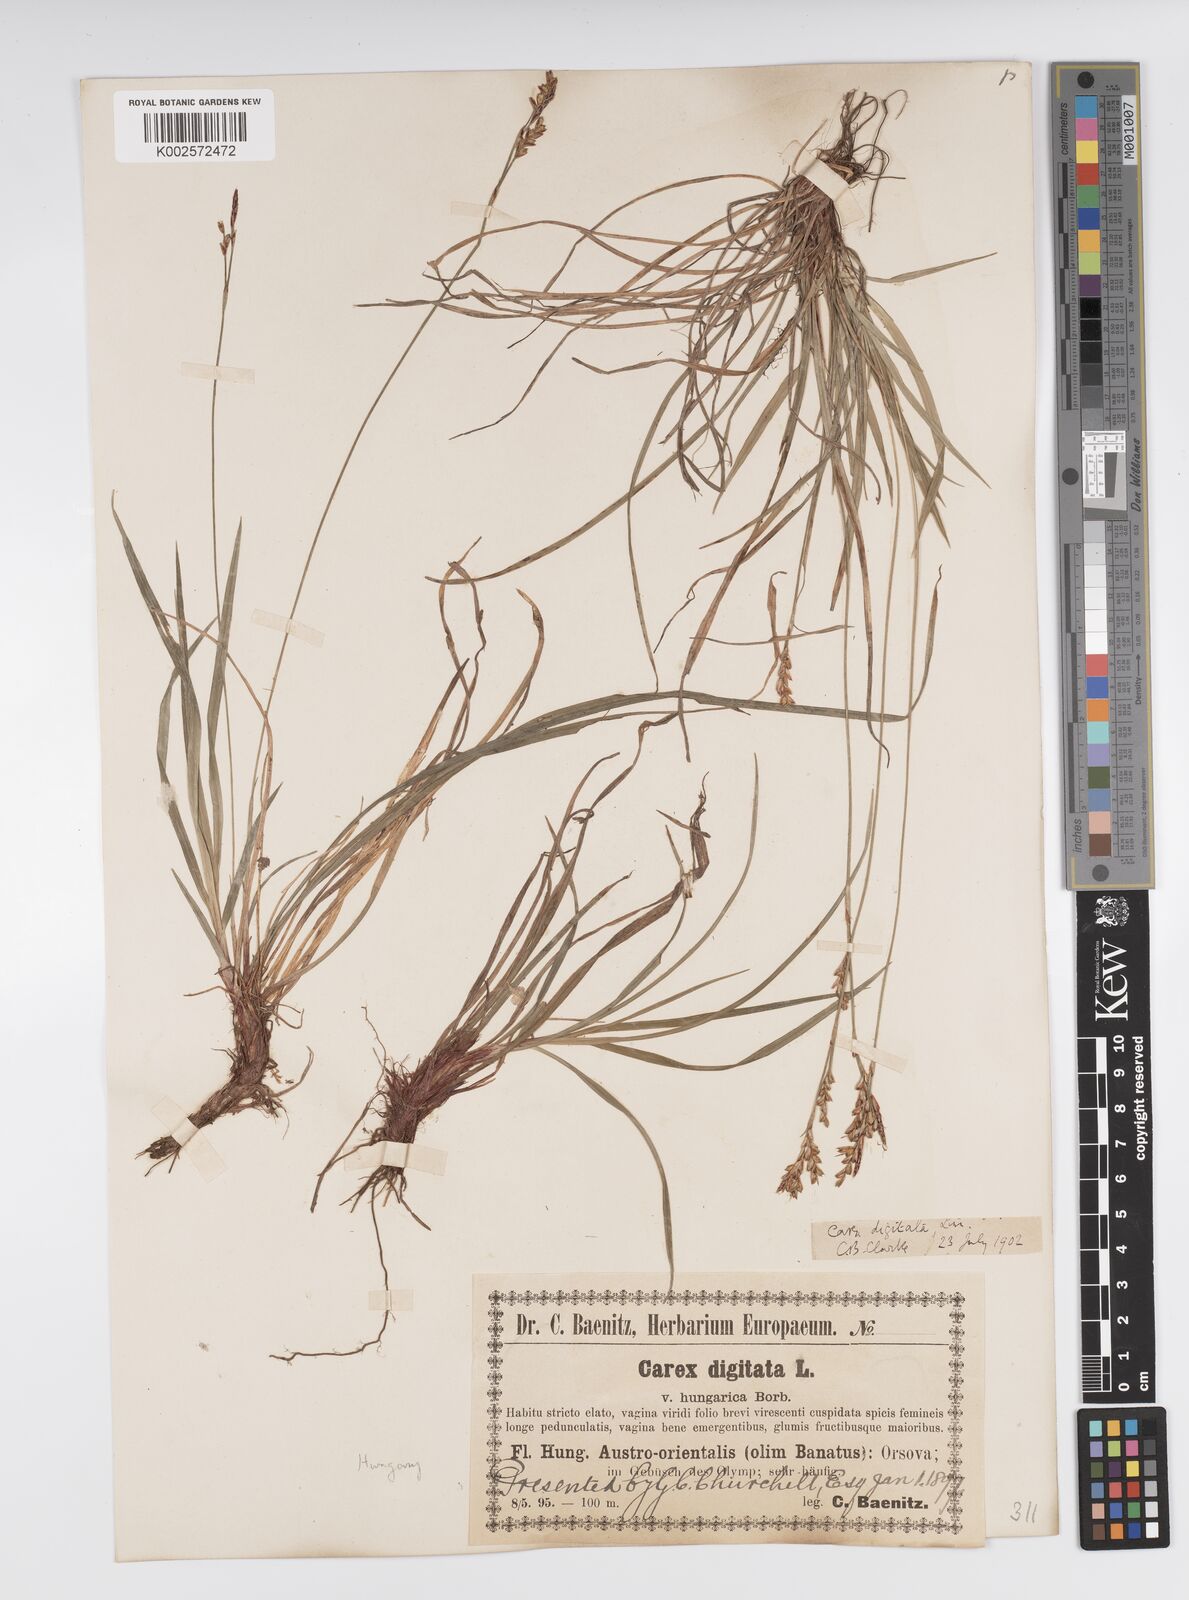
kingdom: Plantae
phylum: Tracheophyta
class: Liliopsida
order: Poales
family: Cyperaceae
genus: Carex
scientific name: Carex digitata
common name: Fingered sedge
